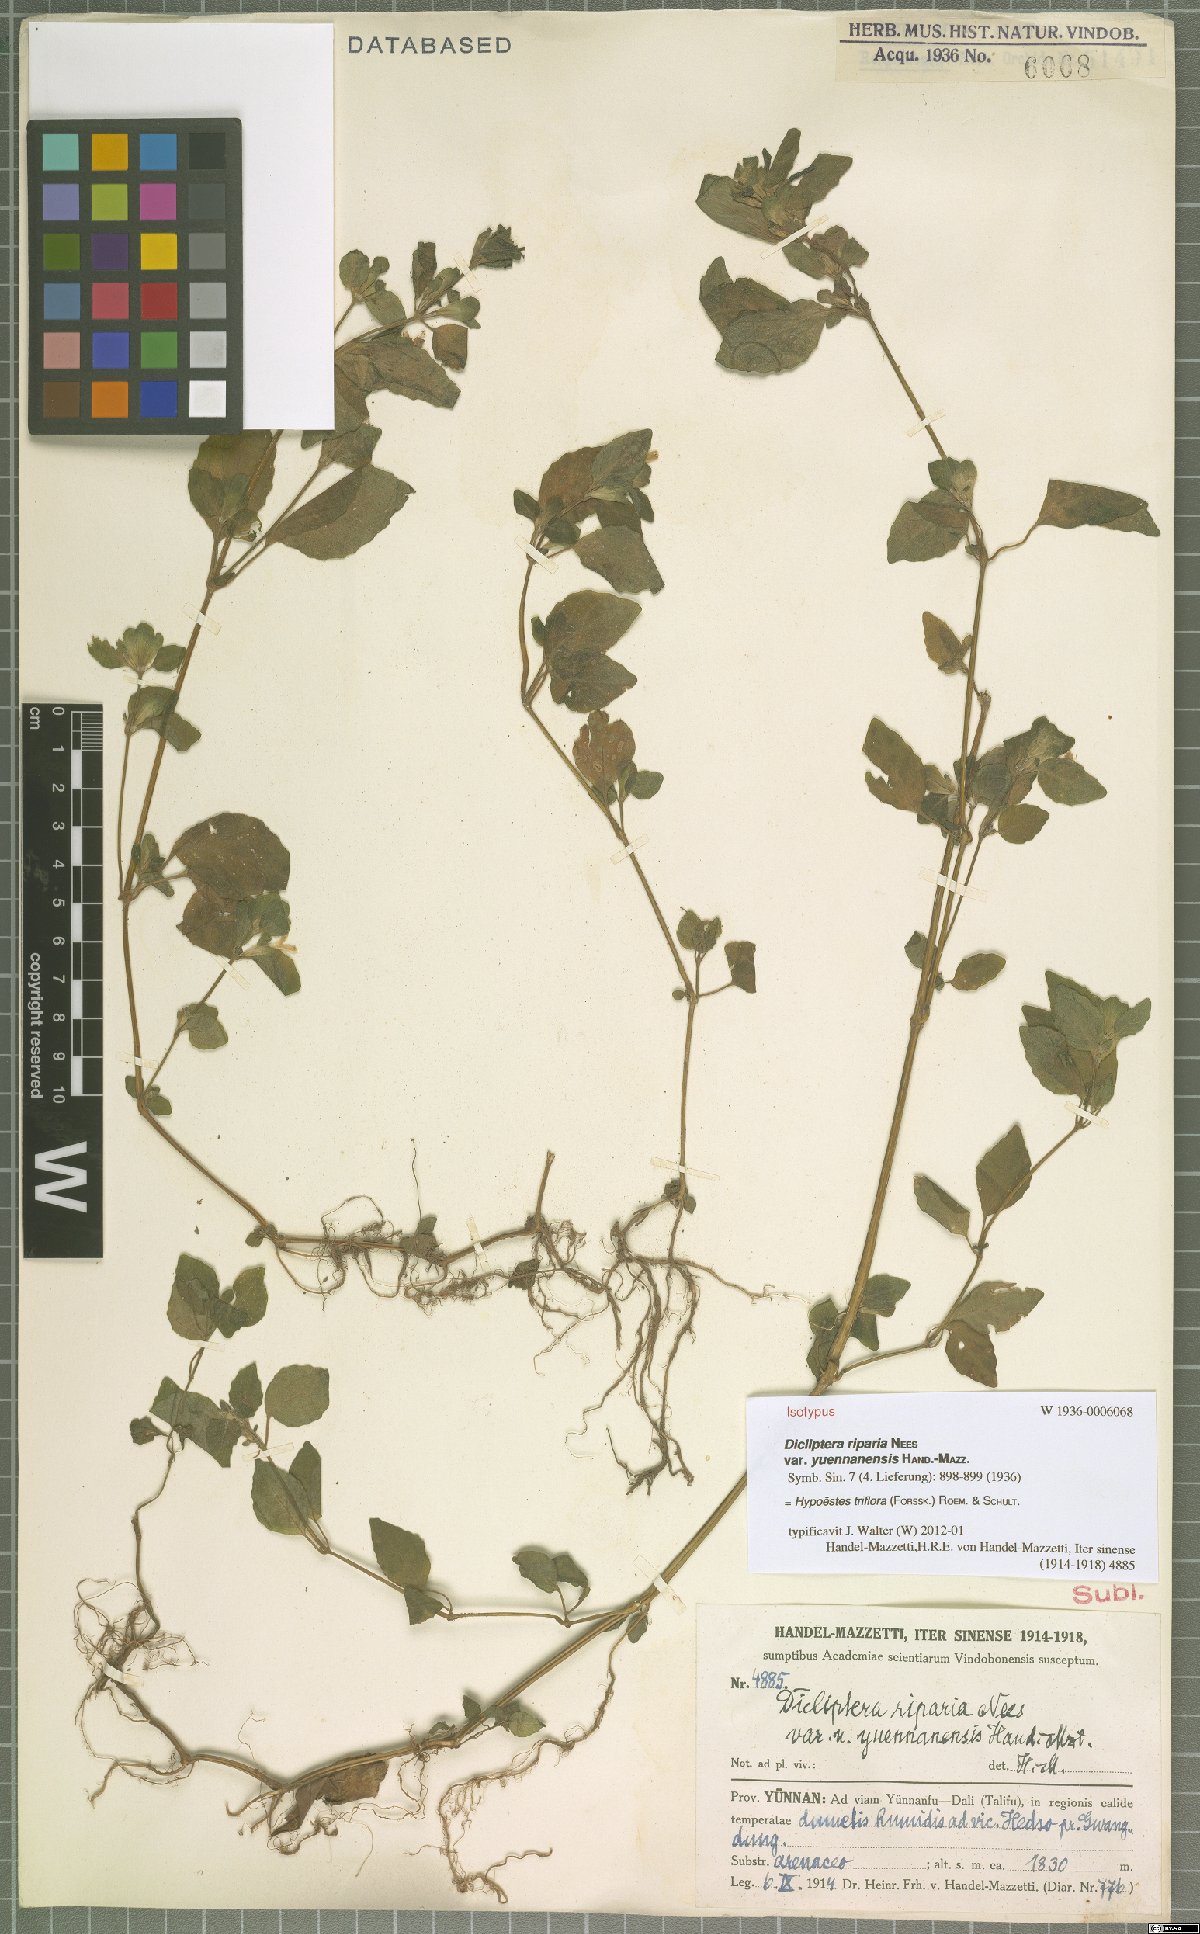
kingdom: Plantae
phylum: Tracheophyta
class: Magnoliopsida
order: Lamiales
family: Acanthaceae
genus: Hypoestes
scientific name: Hypoestes triflora
